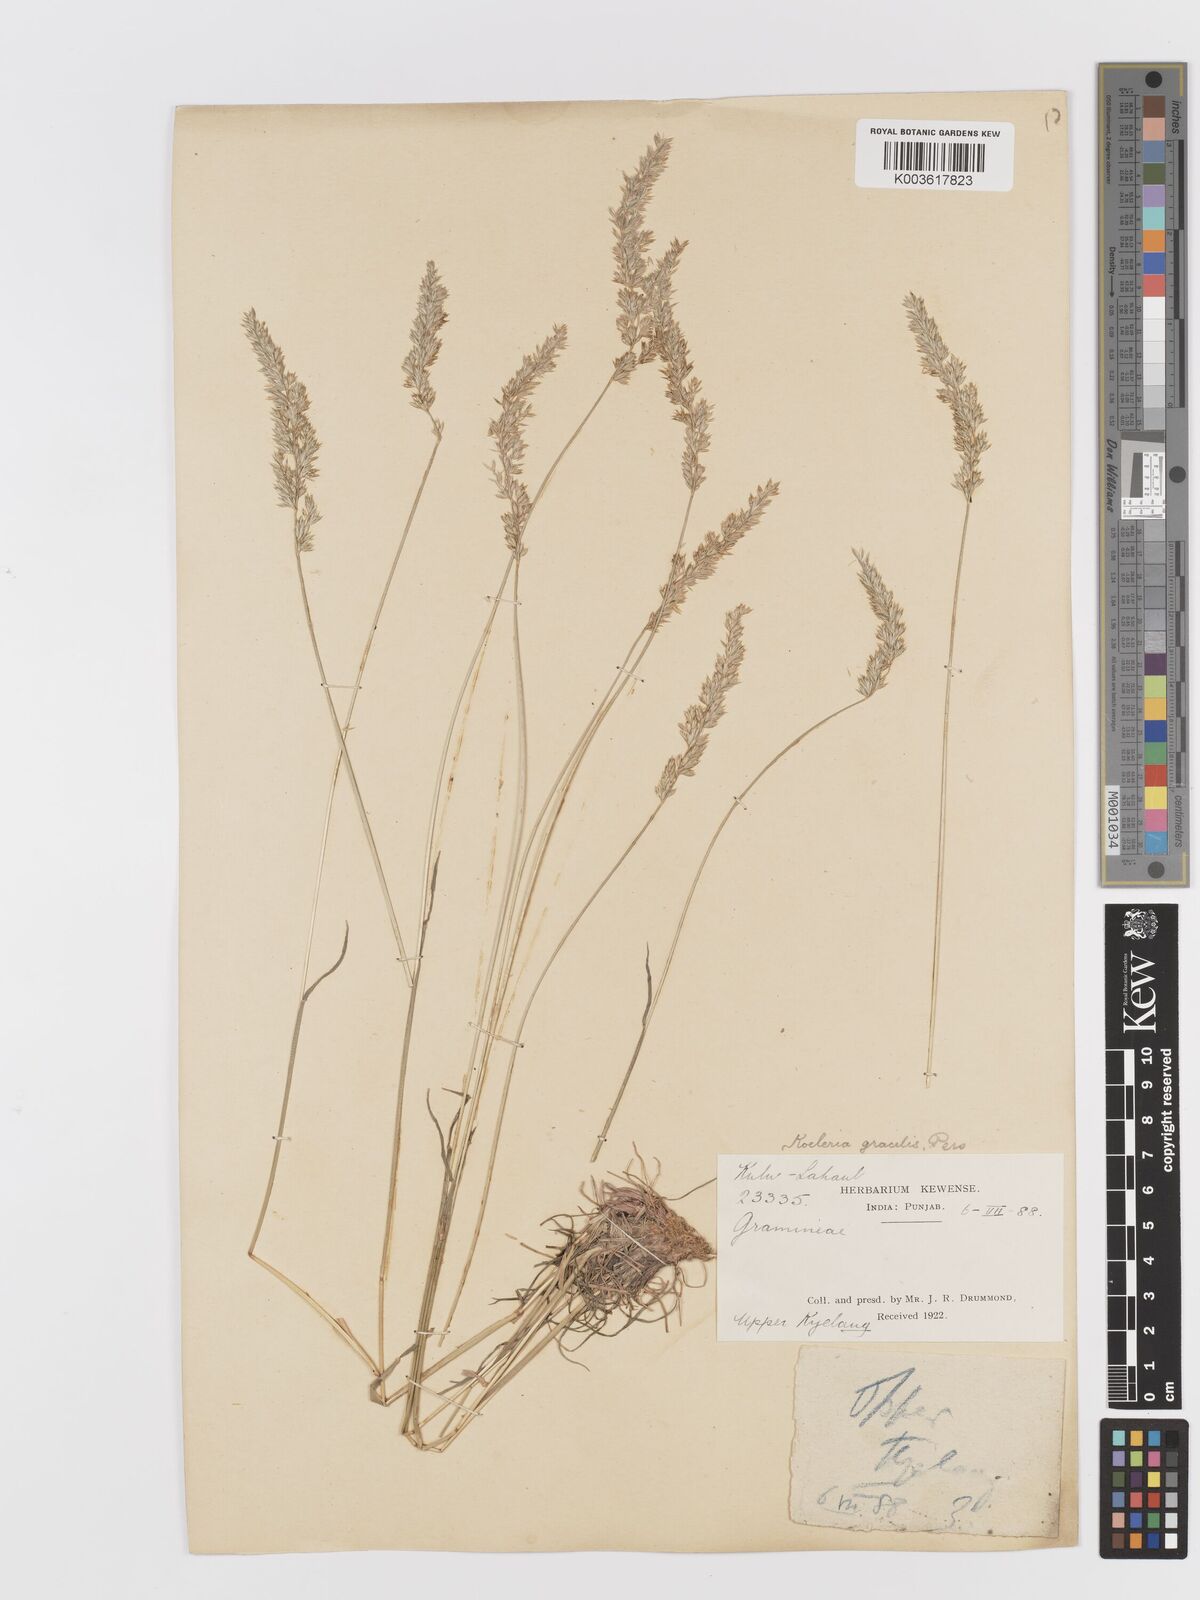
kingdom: Plantae
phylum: Tracheophyta
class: Liliopsida
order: Poales
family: Poaceae
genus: Koeleria
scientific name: Koeleria macrantha
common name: Crested hair-grass
